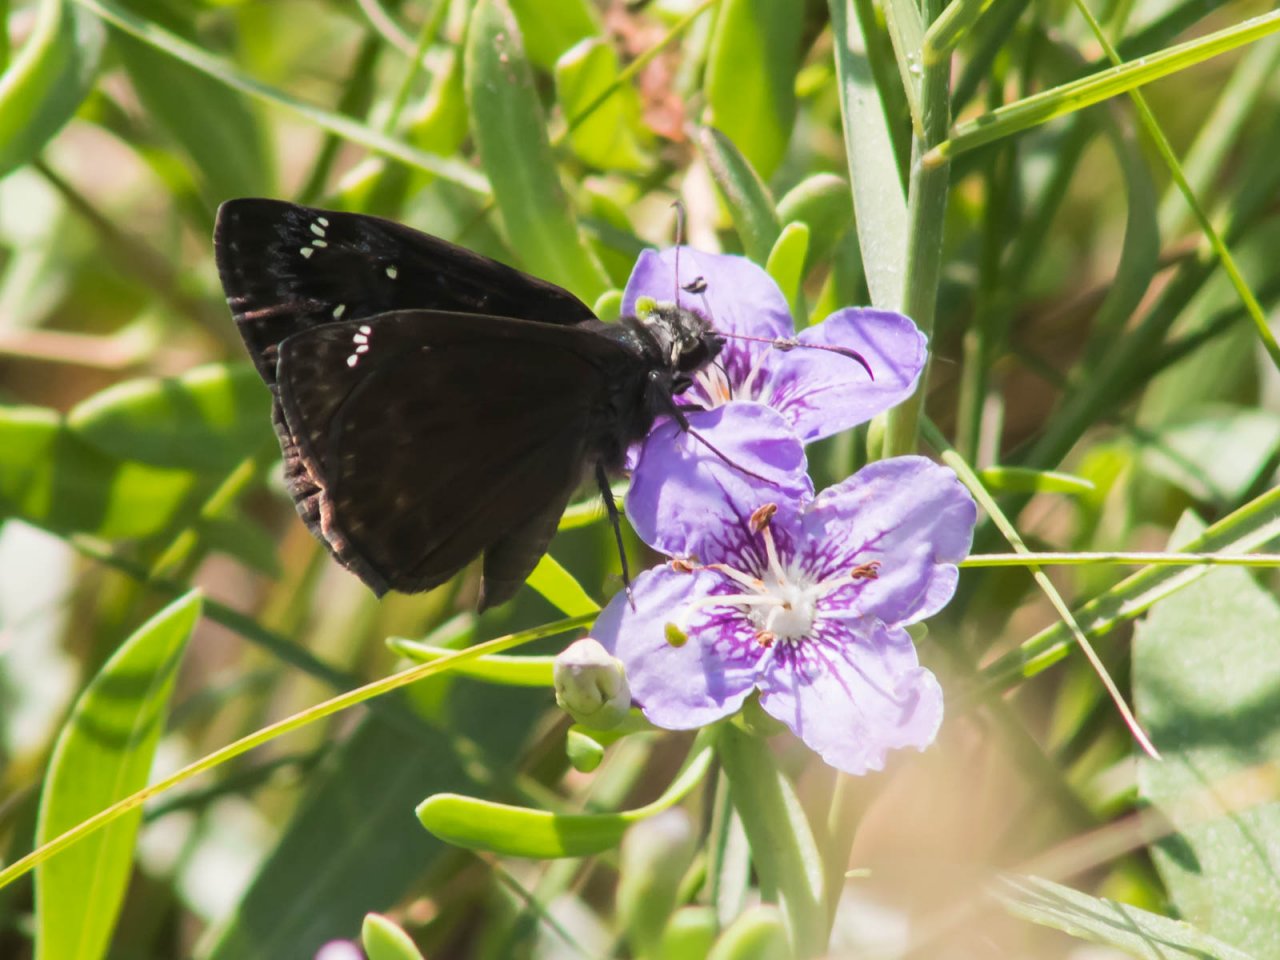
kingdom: Animalia
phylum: Arthropoda
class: Insecta
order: Lepidoptera
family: Hesperiidae
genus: Gesta
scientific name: Gesta
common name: Horace's Duskywing
